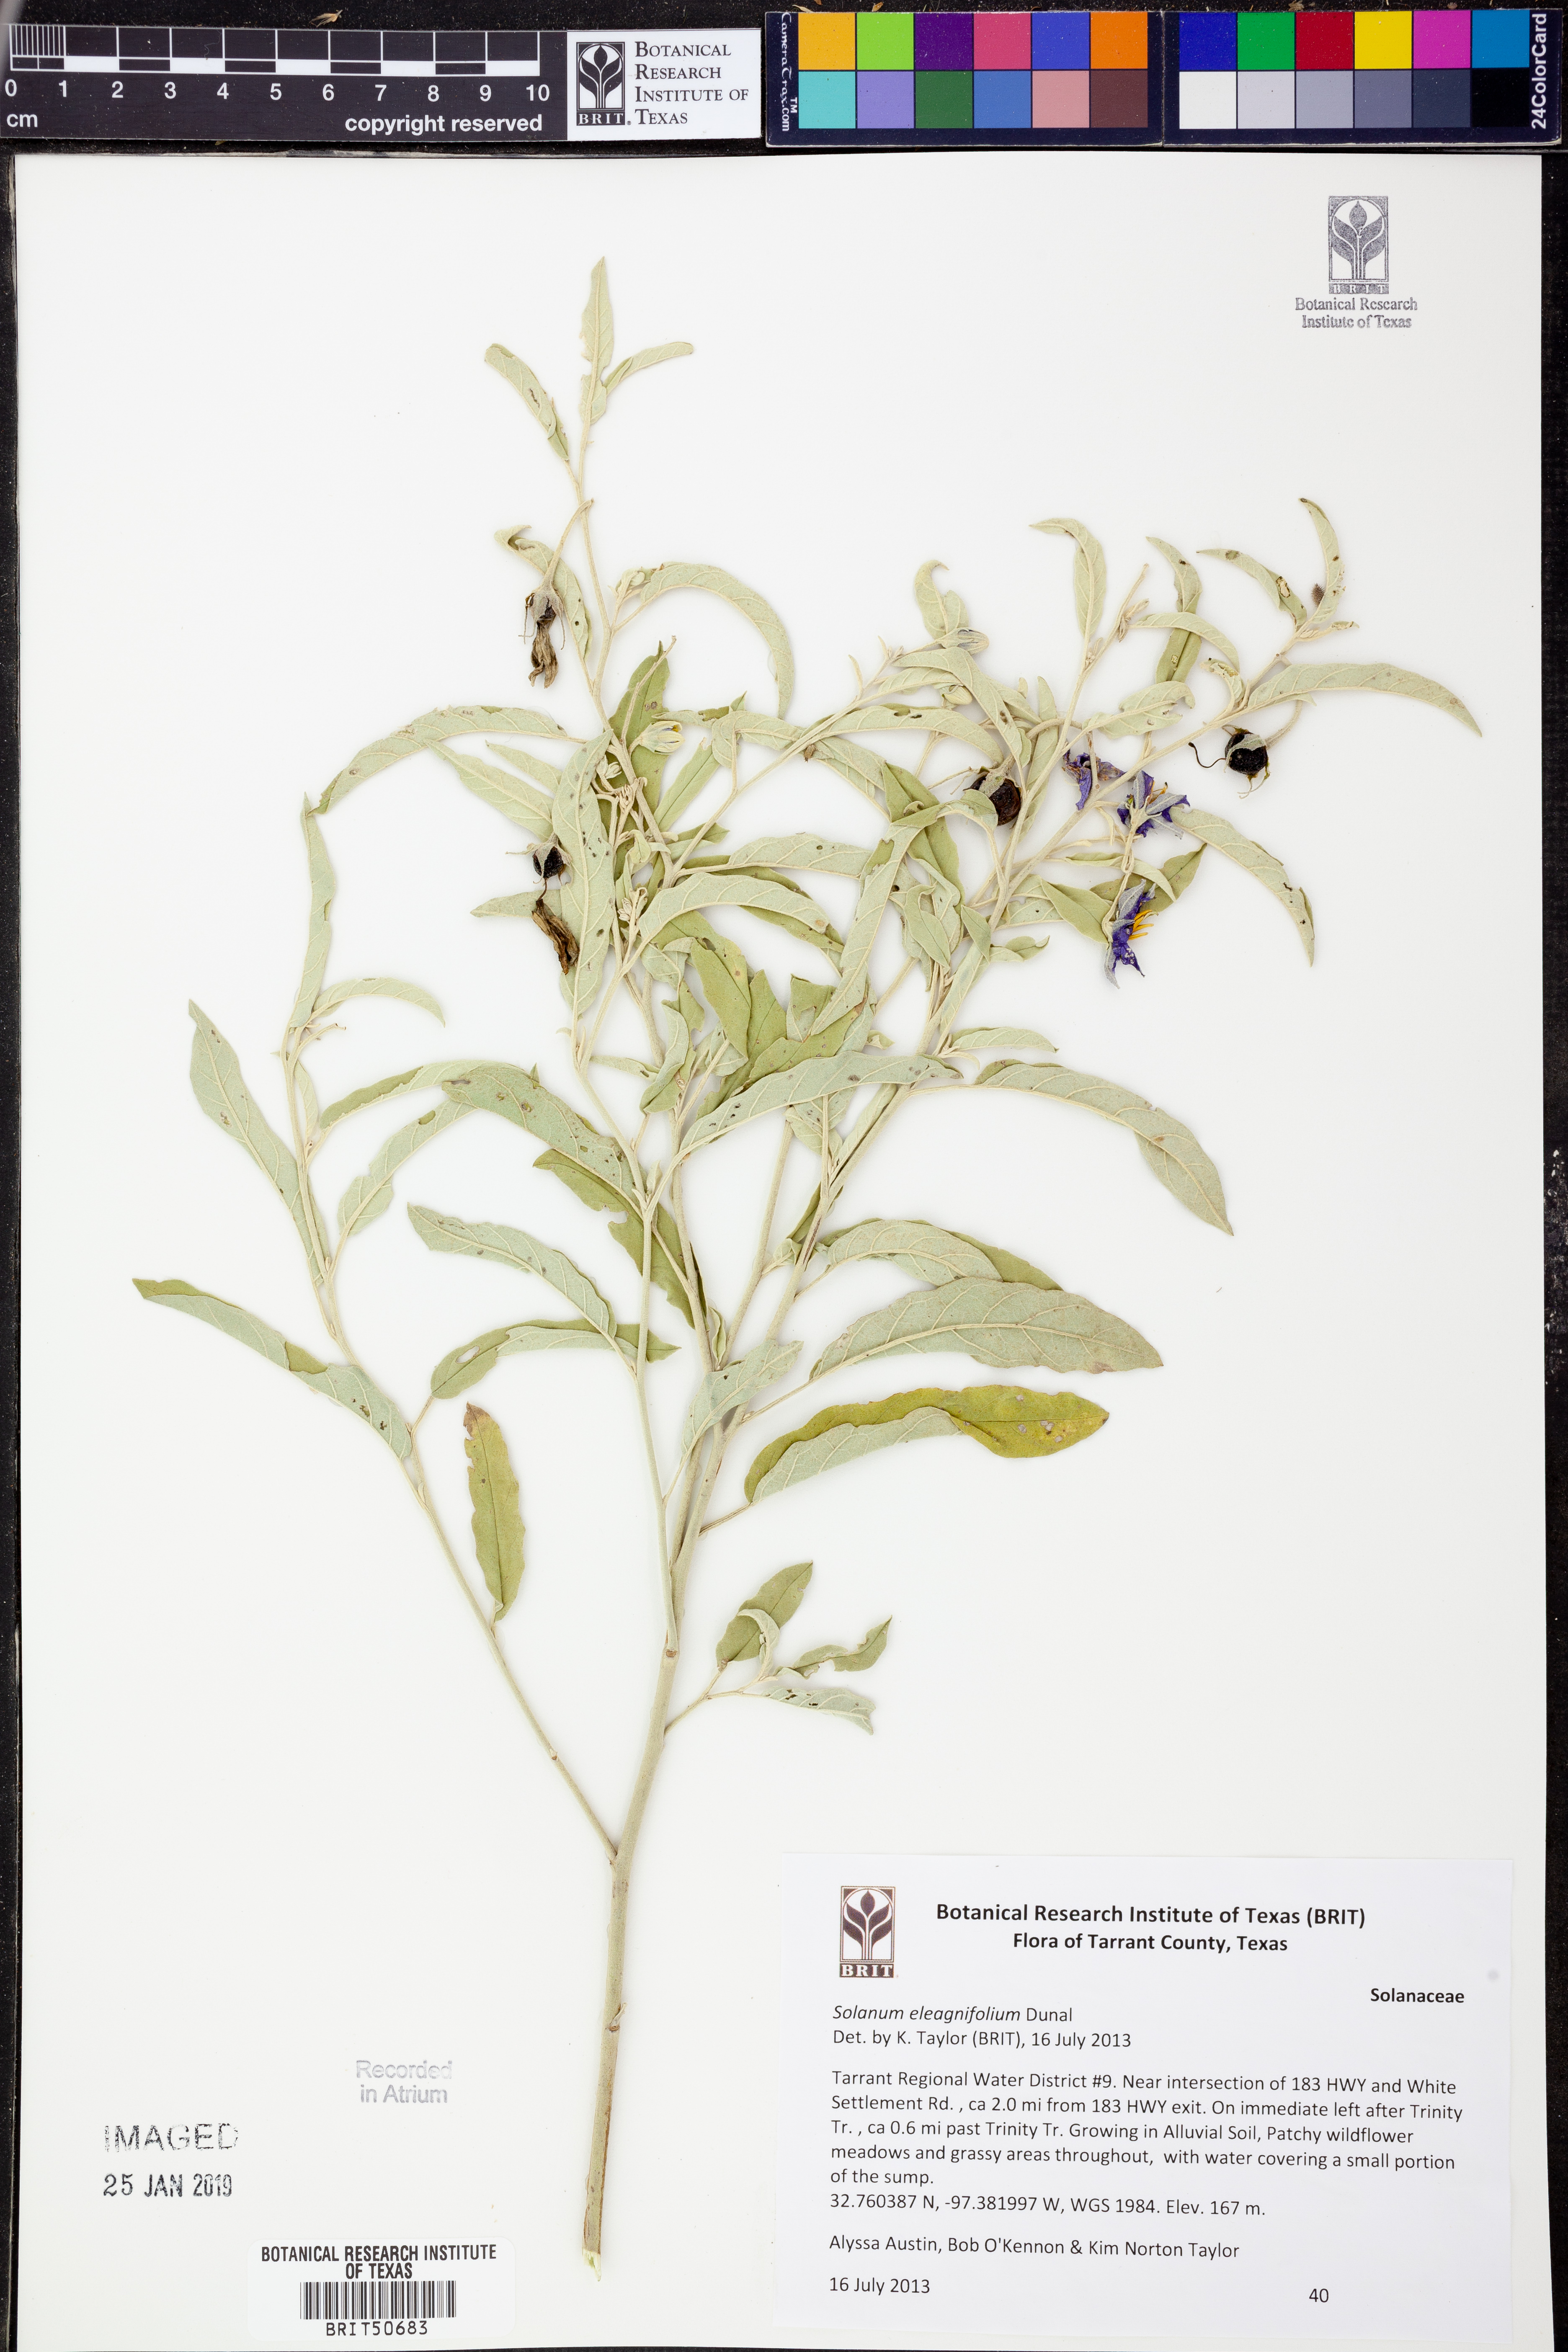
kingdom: Plantae
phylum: Tracheophyta
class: Magnoliopsida
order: Solanales
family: Solanaceae
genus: Solanum
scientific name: Solanum elaeagnifolium
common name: Silverleaf nightshade
